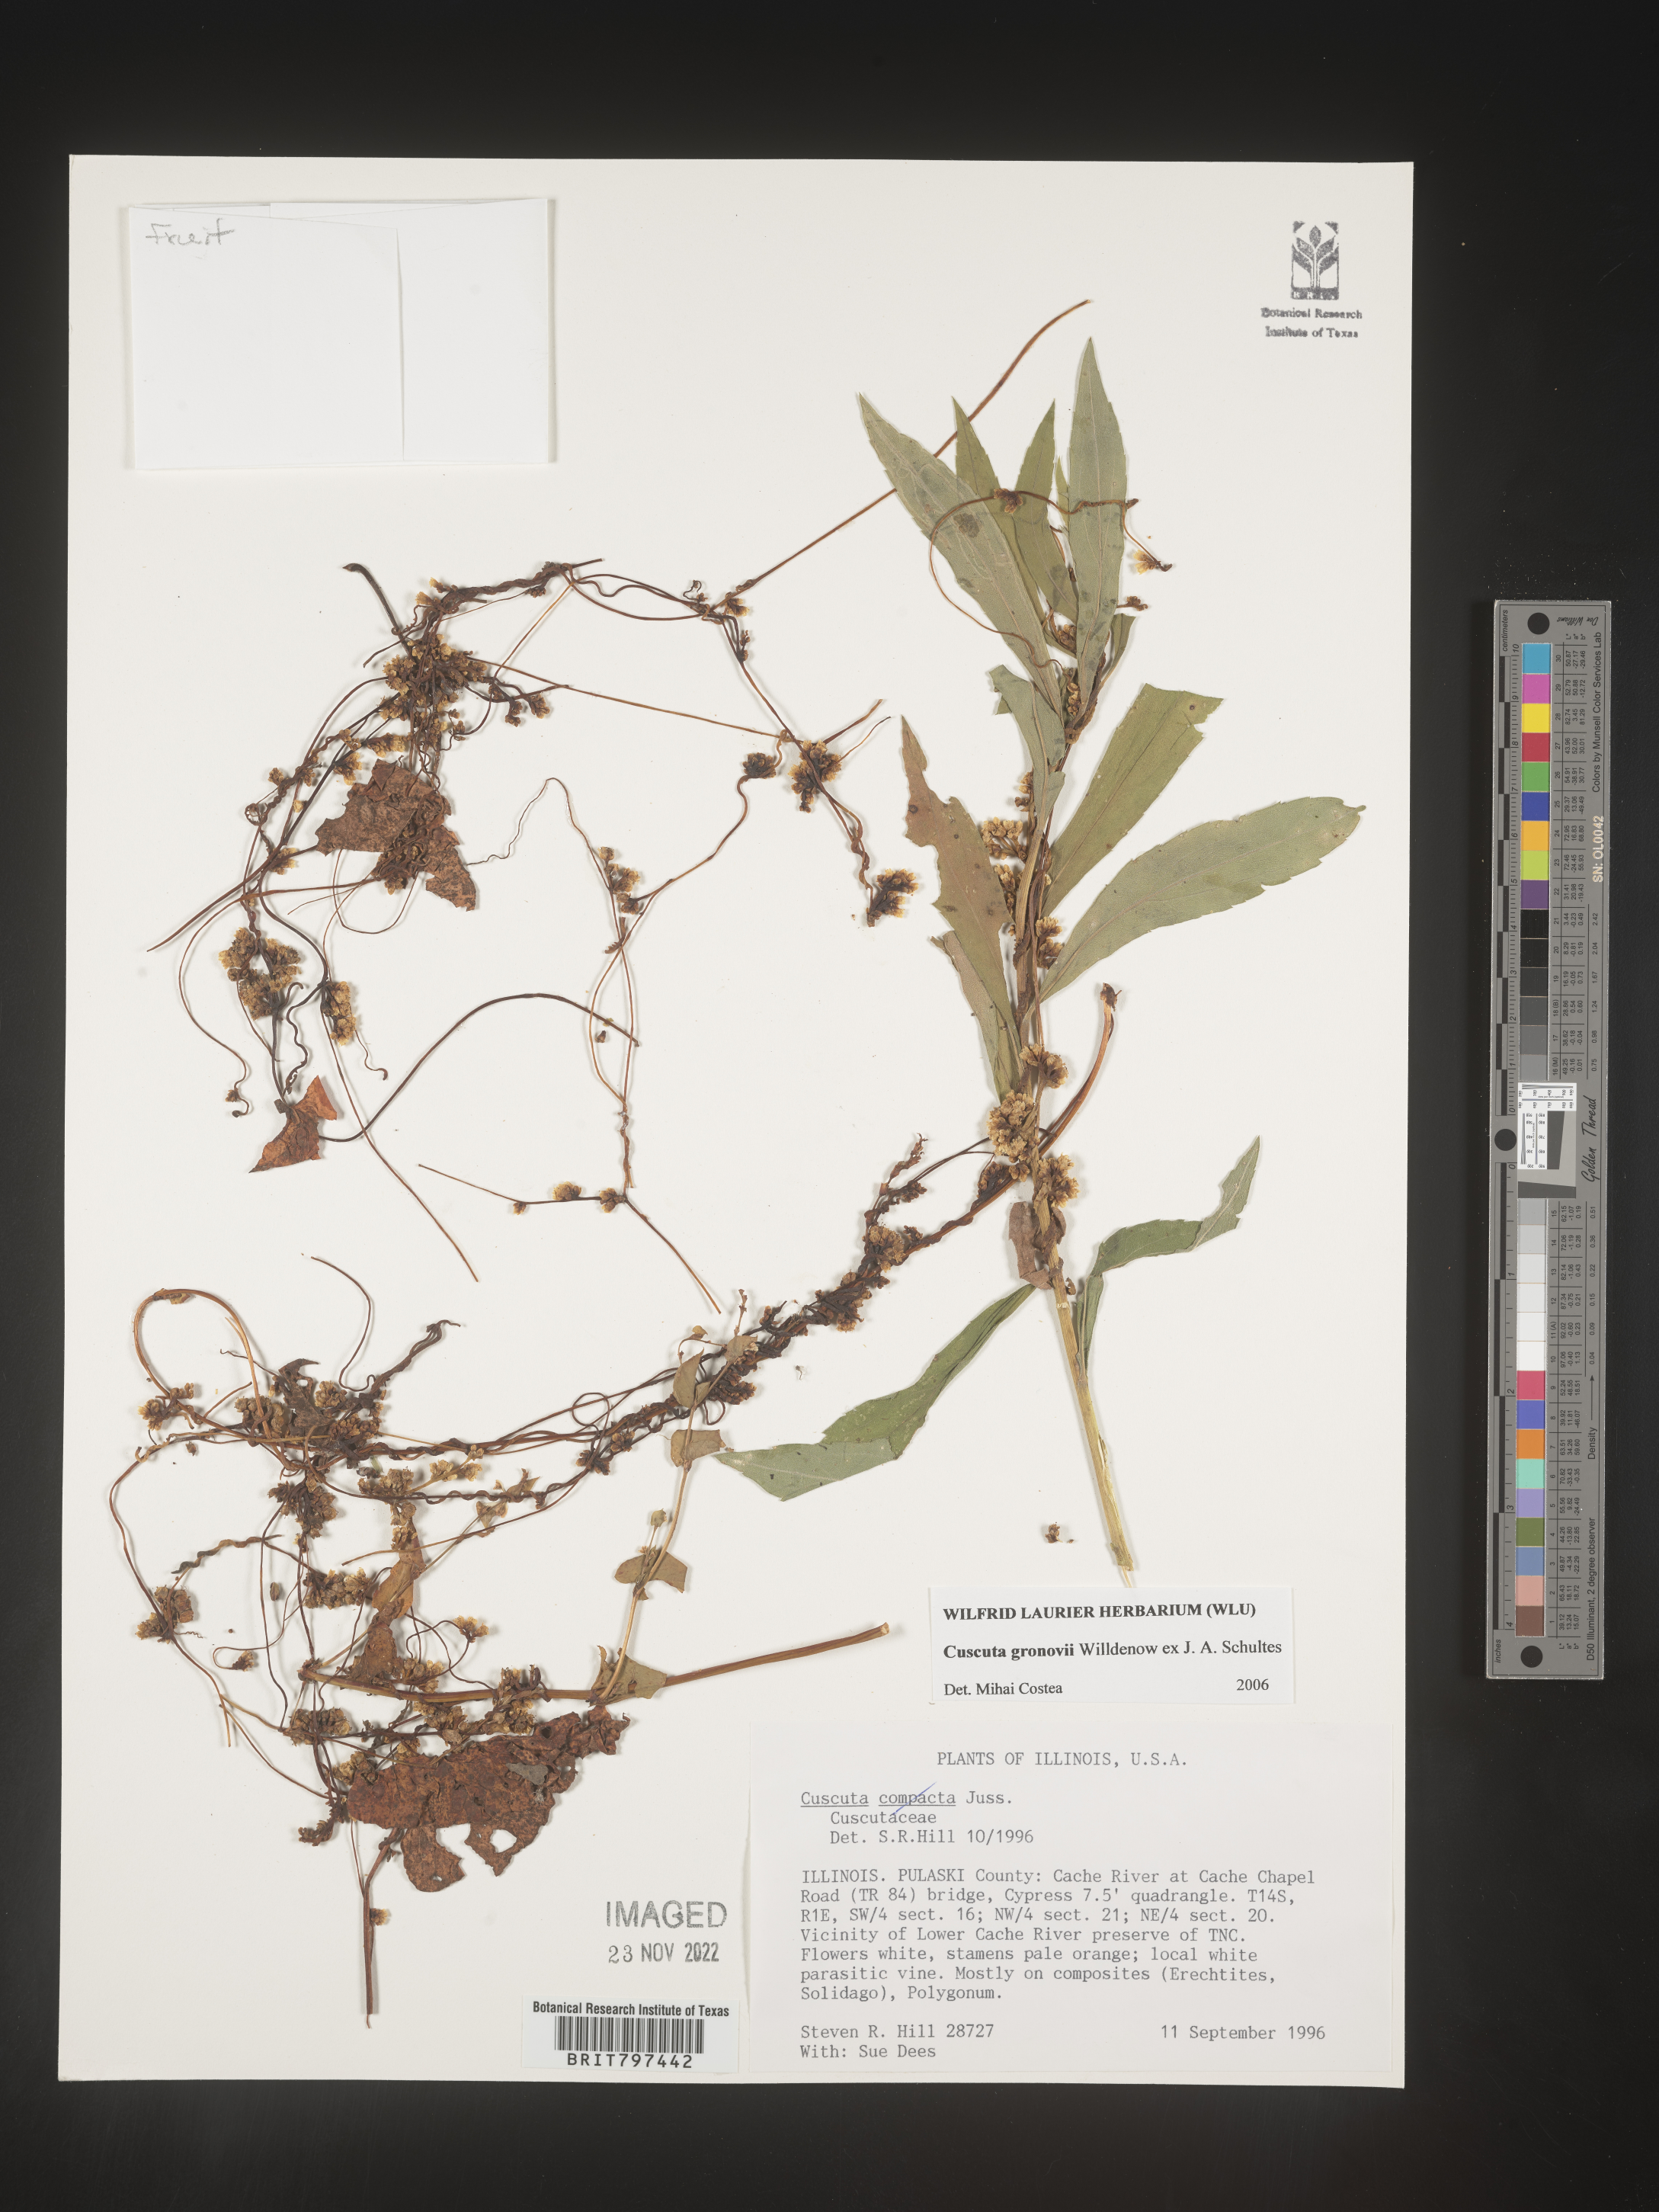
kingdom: Plantae
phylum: Tracheophyta
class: Magnoliopsida
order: Solanales
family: Convolvulaceae
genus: Cuscuta
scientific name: Cuscuta gronovii
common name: Common dodder
